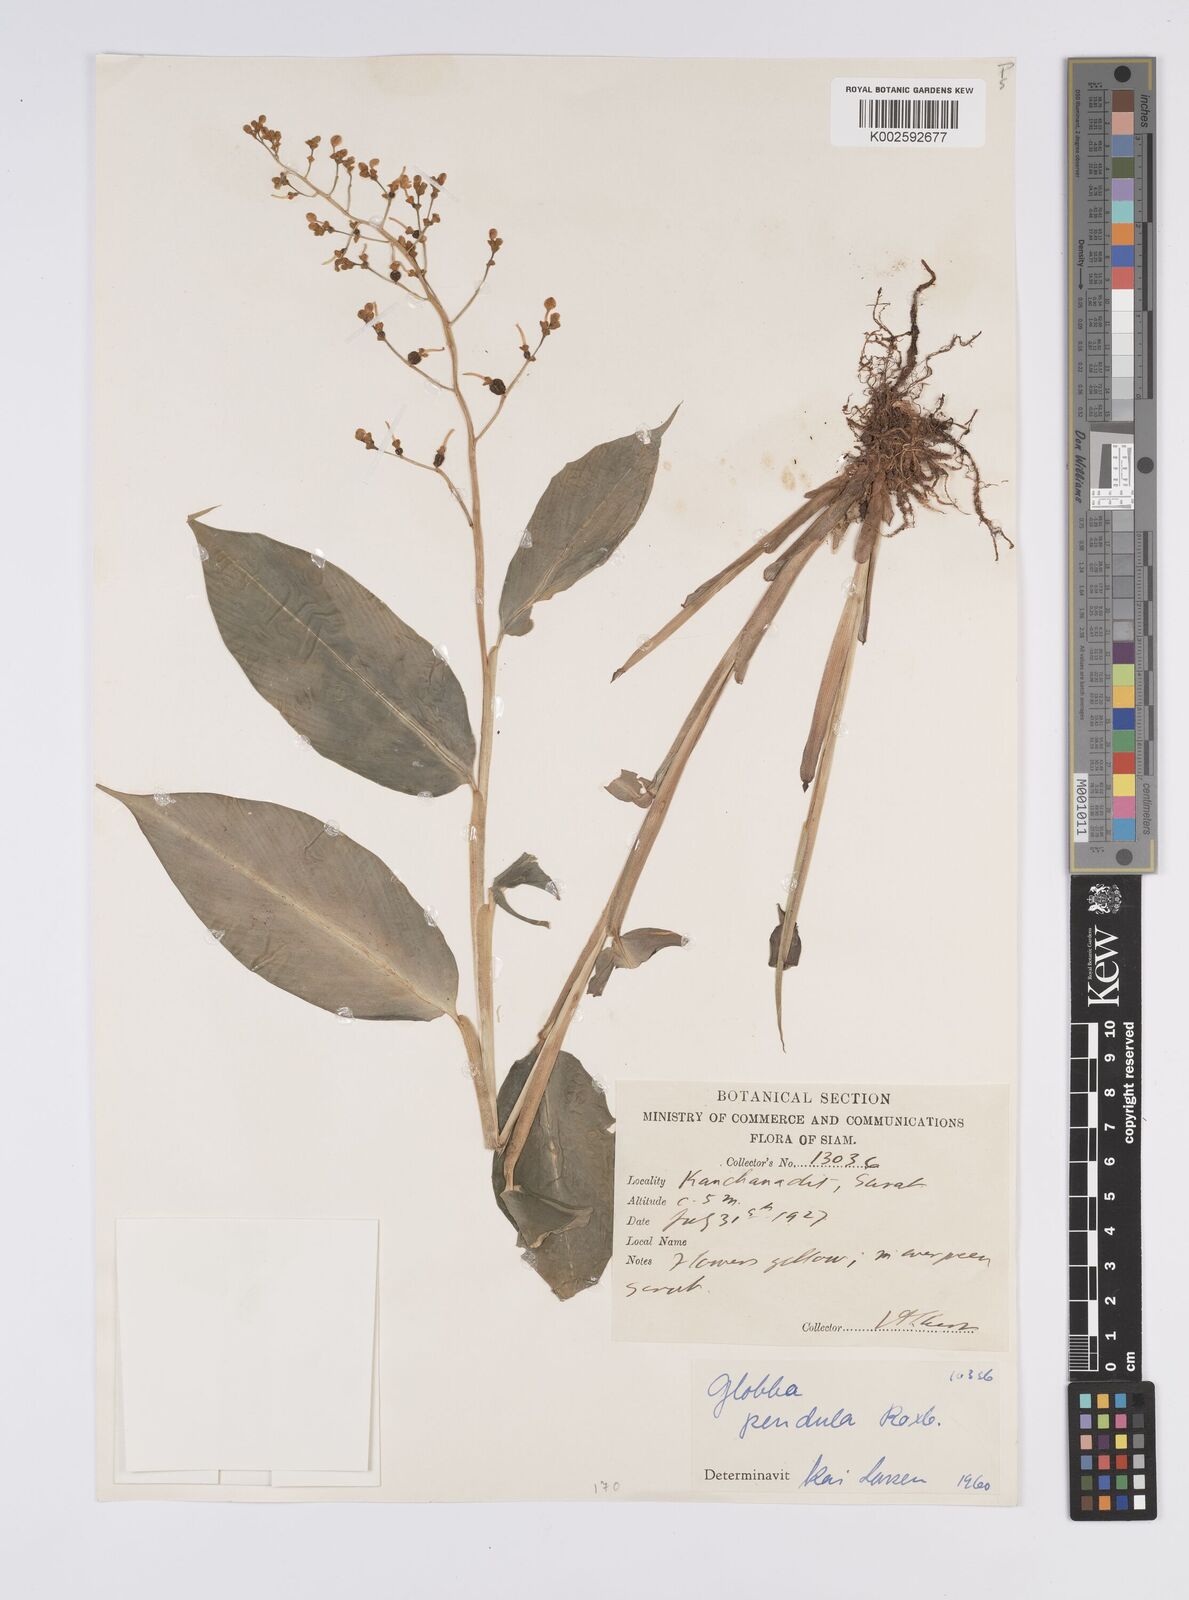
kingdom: Plantae
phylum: Tracheophyta
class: Liliopsida
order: Zingiberales
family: Zingiberaceae
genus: Globba
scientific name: Globba pendula
